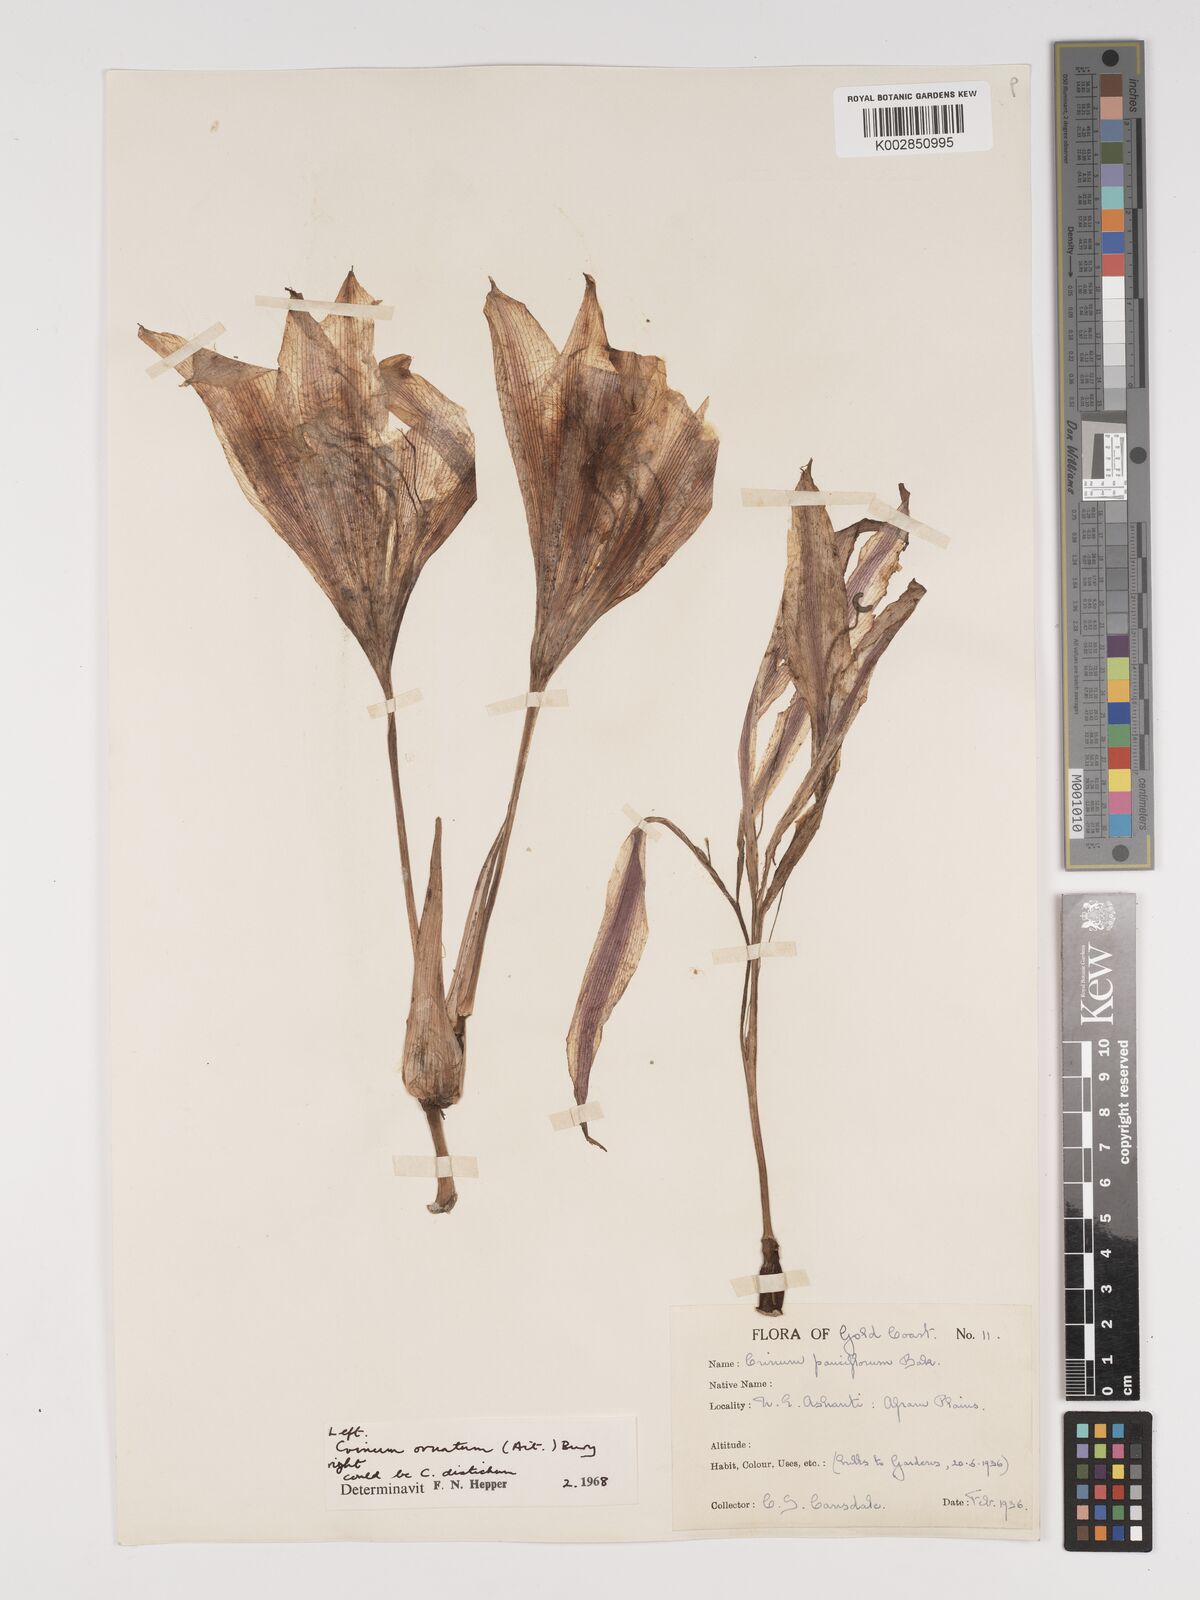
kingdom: Plantae
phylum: Tracheophyta
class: Liliopsida
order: Asparagales
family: Amaryllidaceae
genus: Crinum
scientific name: Crinum ornatum
